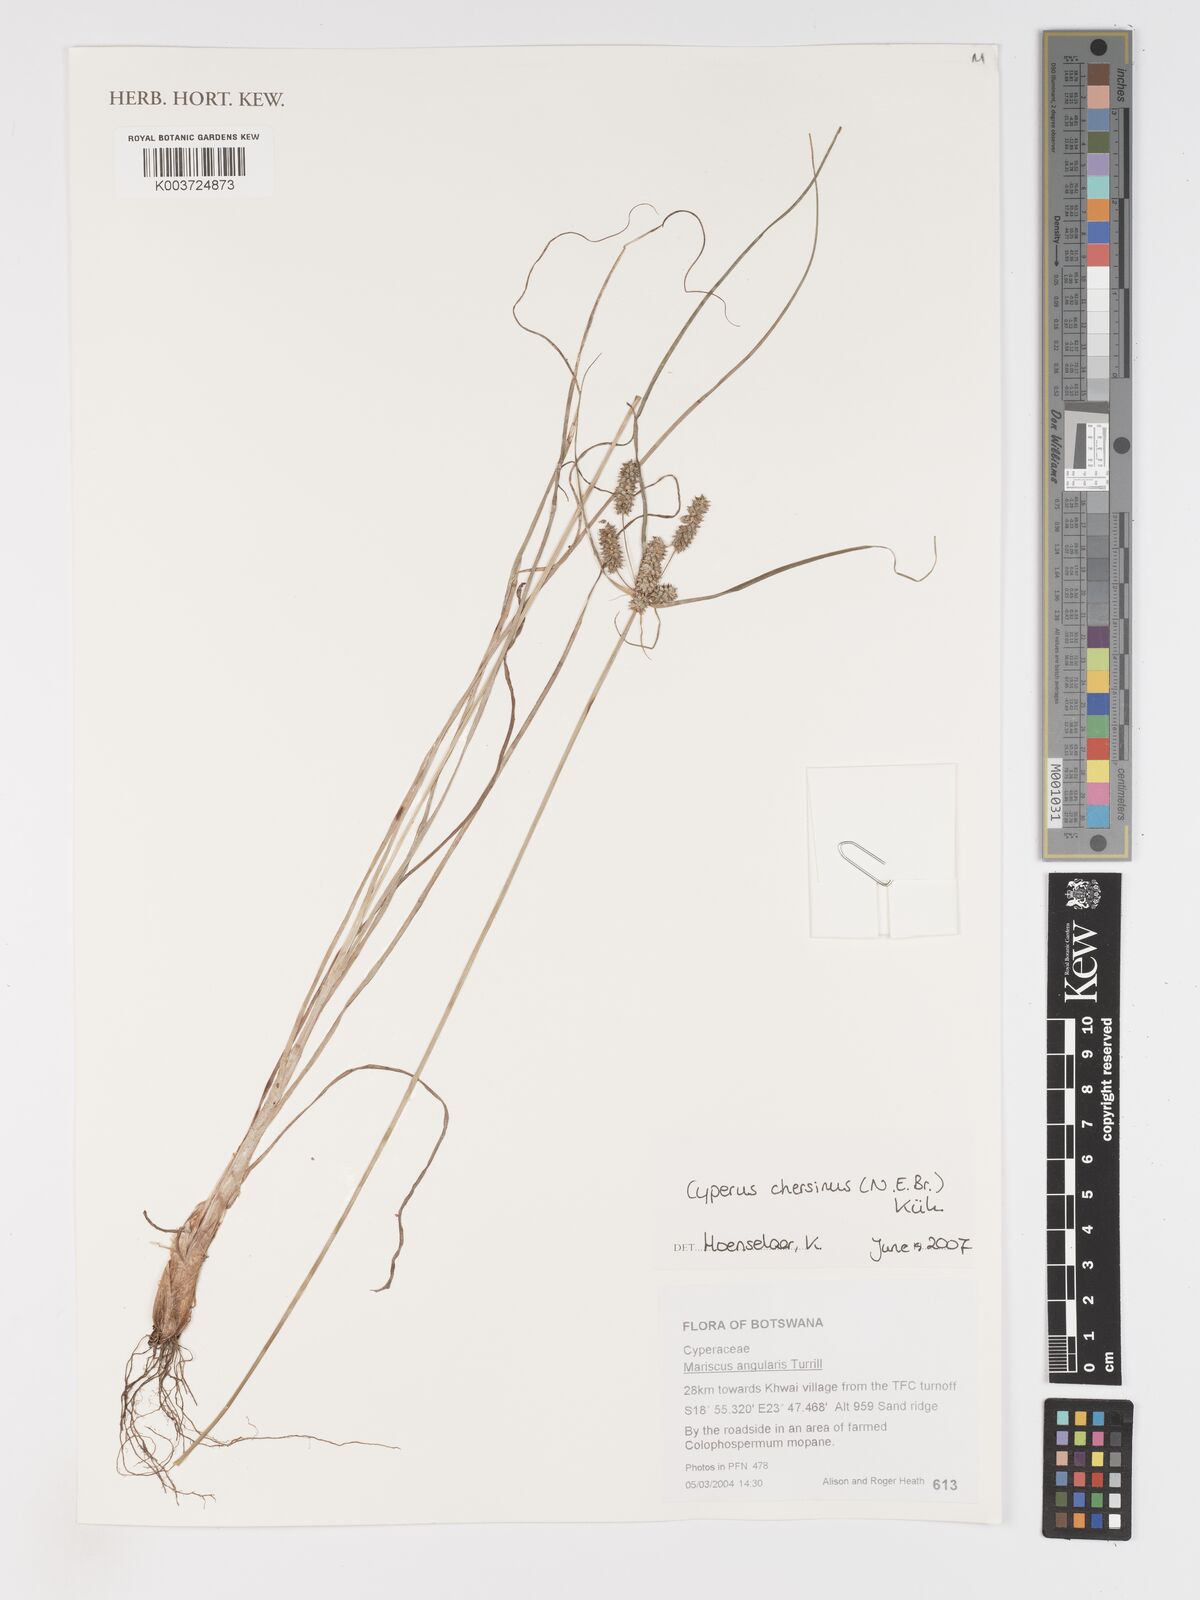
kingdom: Plantae
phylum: Tracheophyta
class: Liliopsida
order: Poales
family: Cyperaceae
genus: Cyperus
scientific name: Cyperus chersinus
